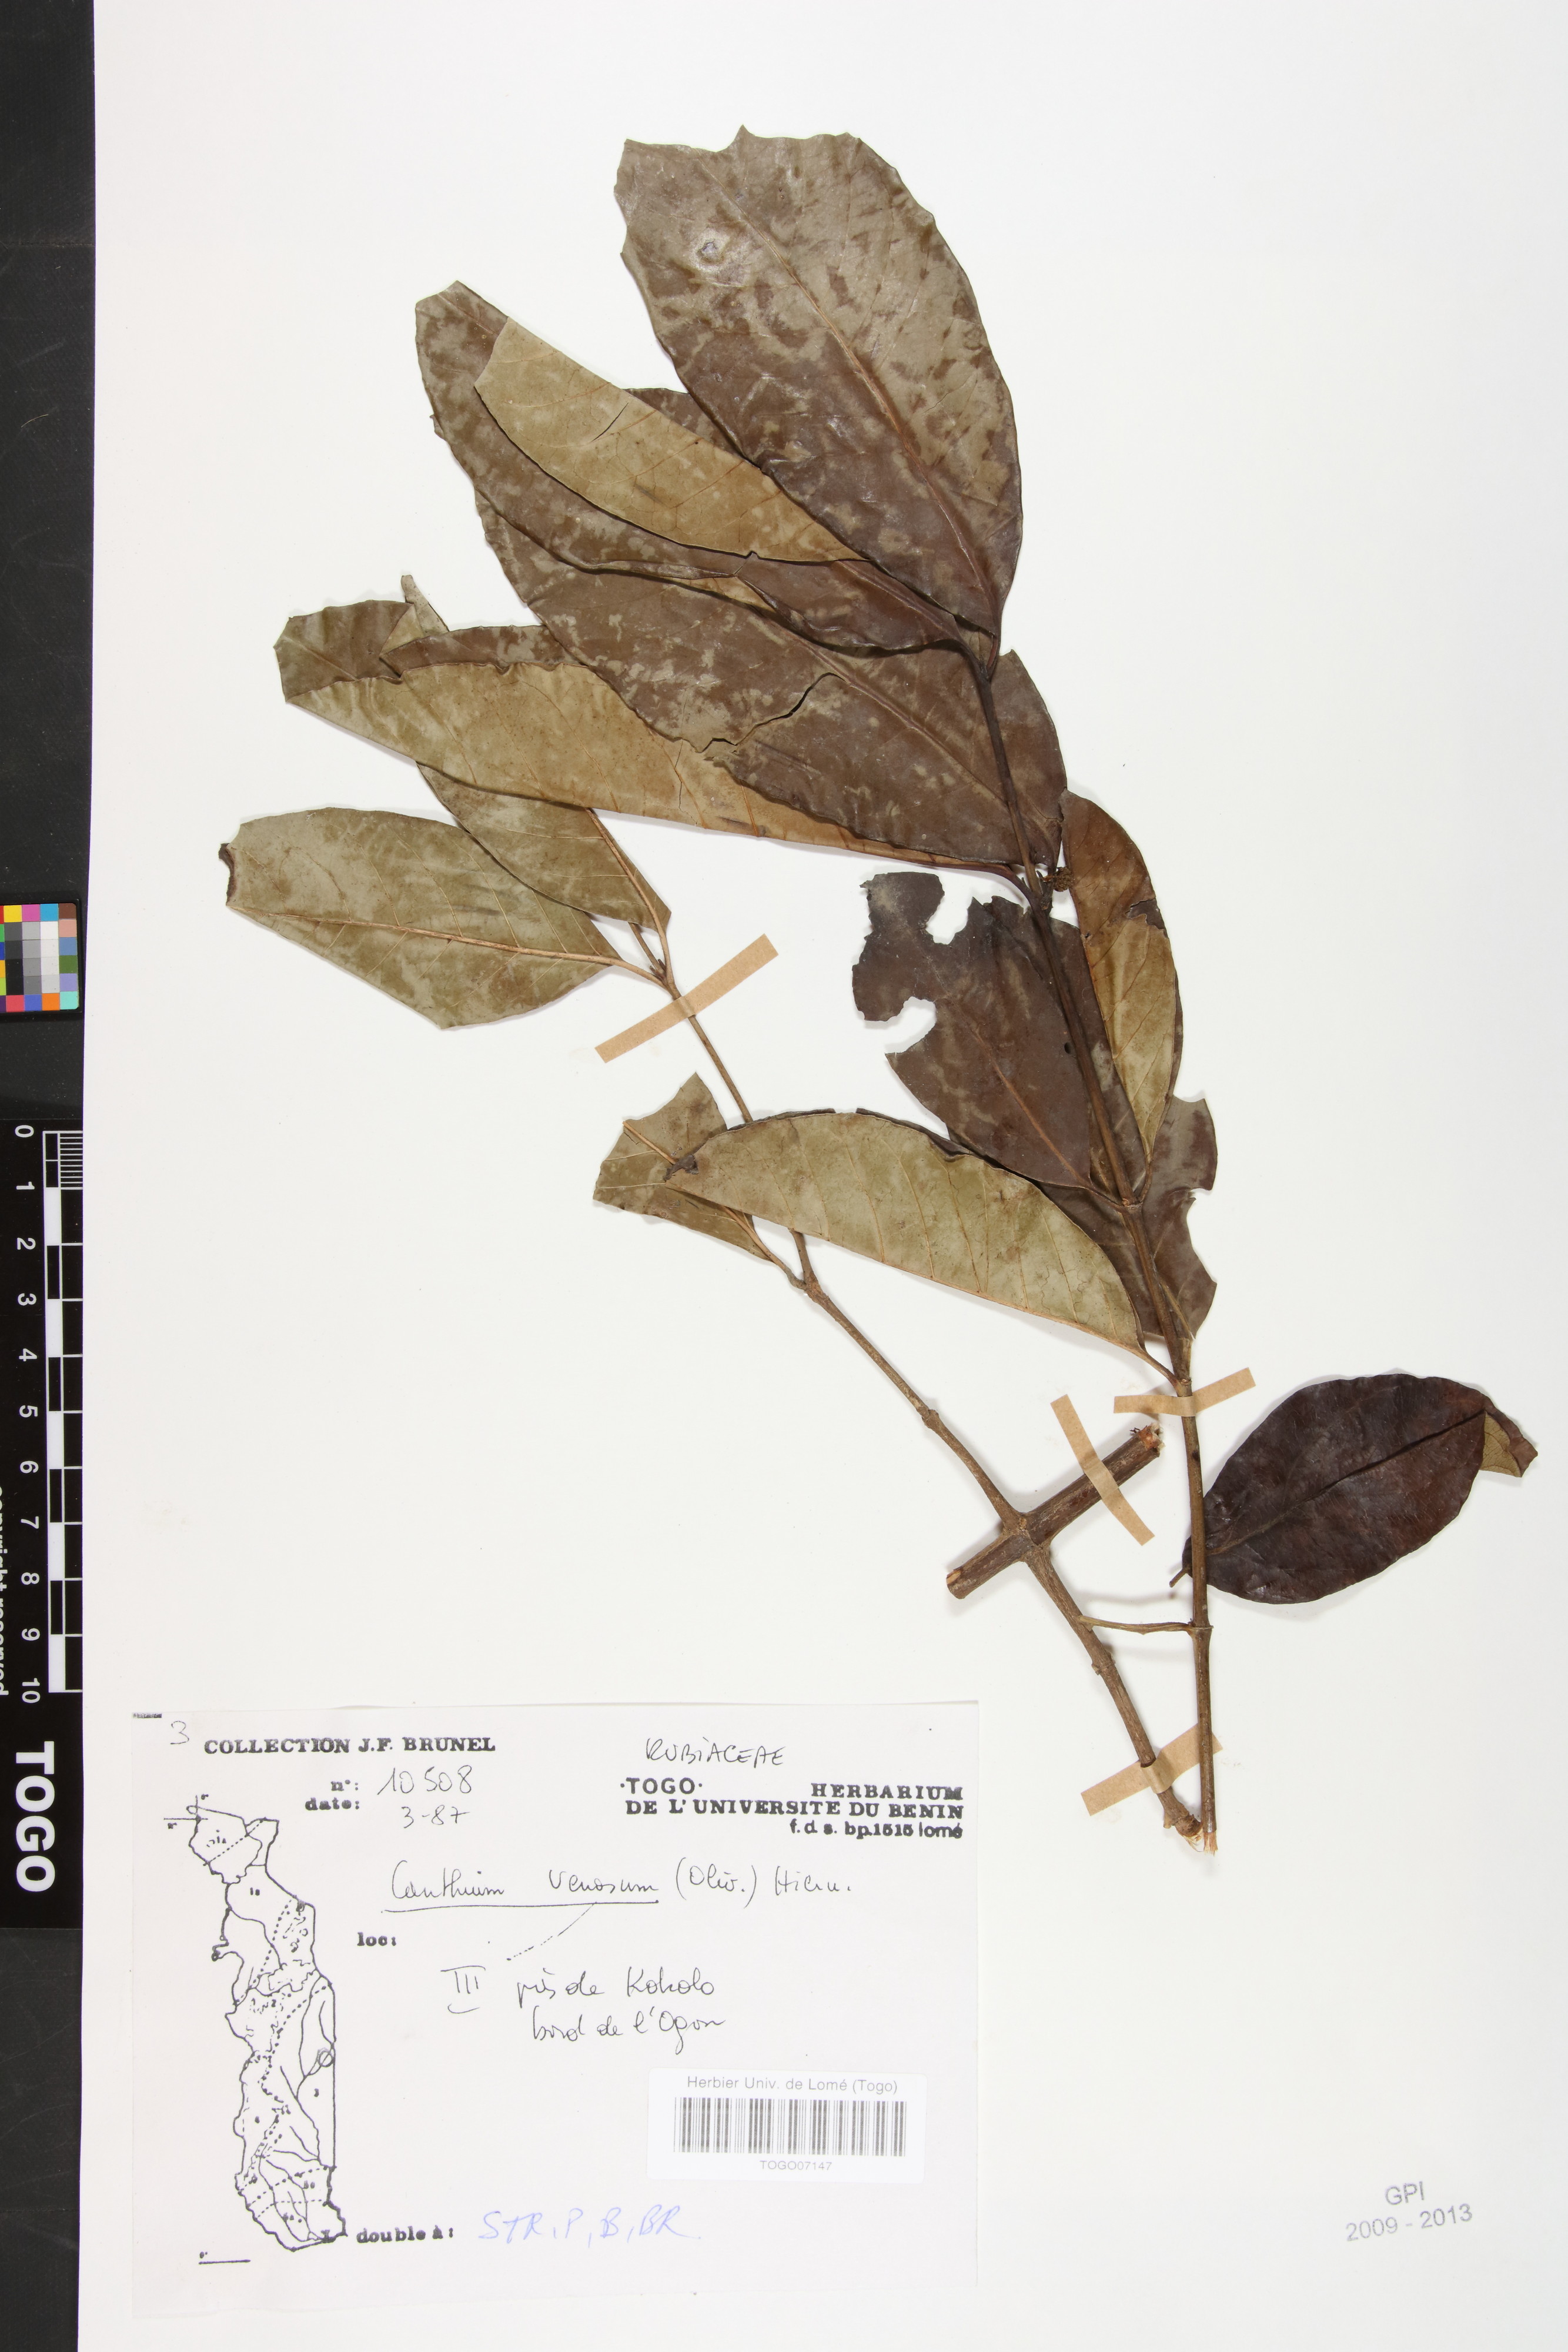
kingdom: Plantae
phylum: Tracheophyta
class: Magnoliopsida
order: Gentianales
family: Rubiaceae
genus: Keetia
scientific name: Keetia venosa
